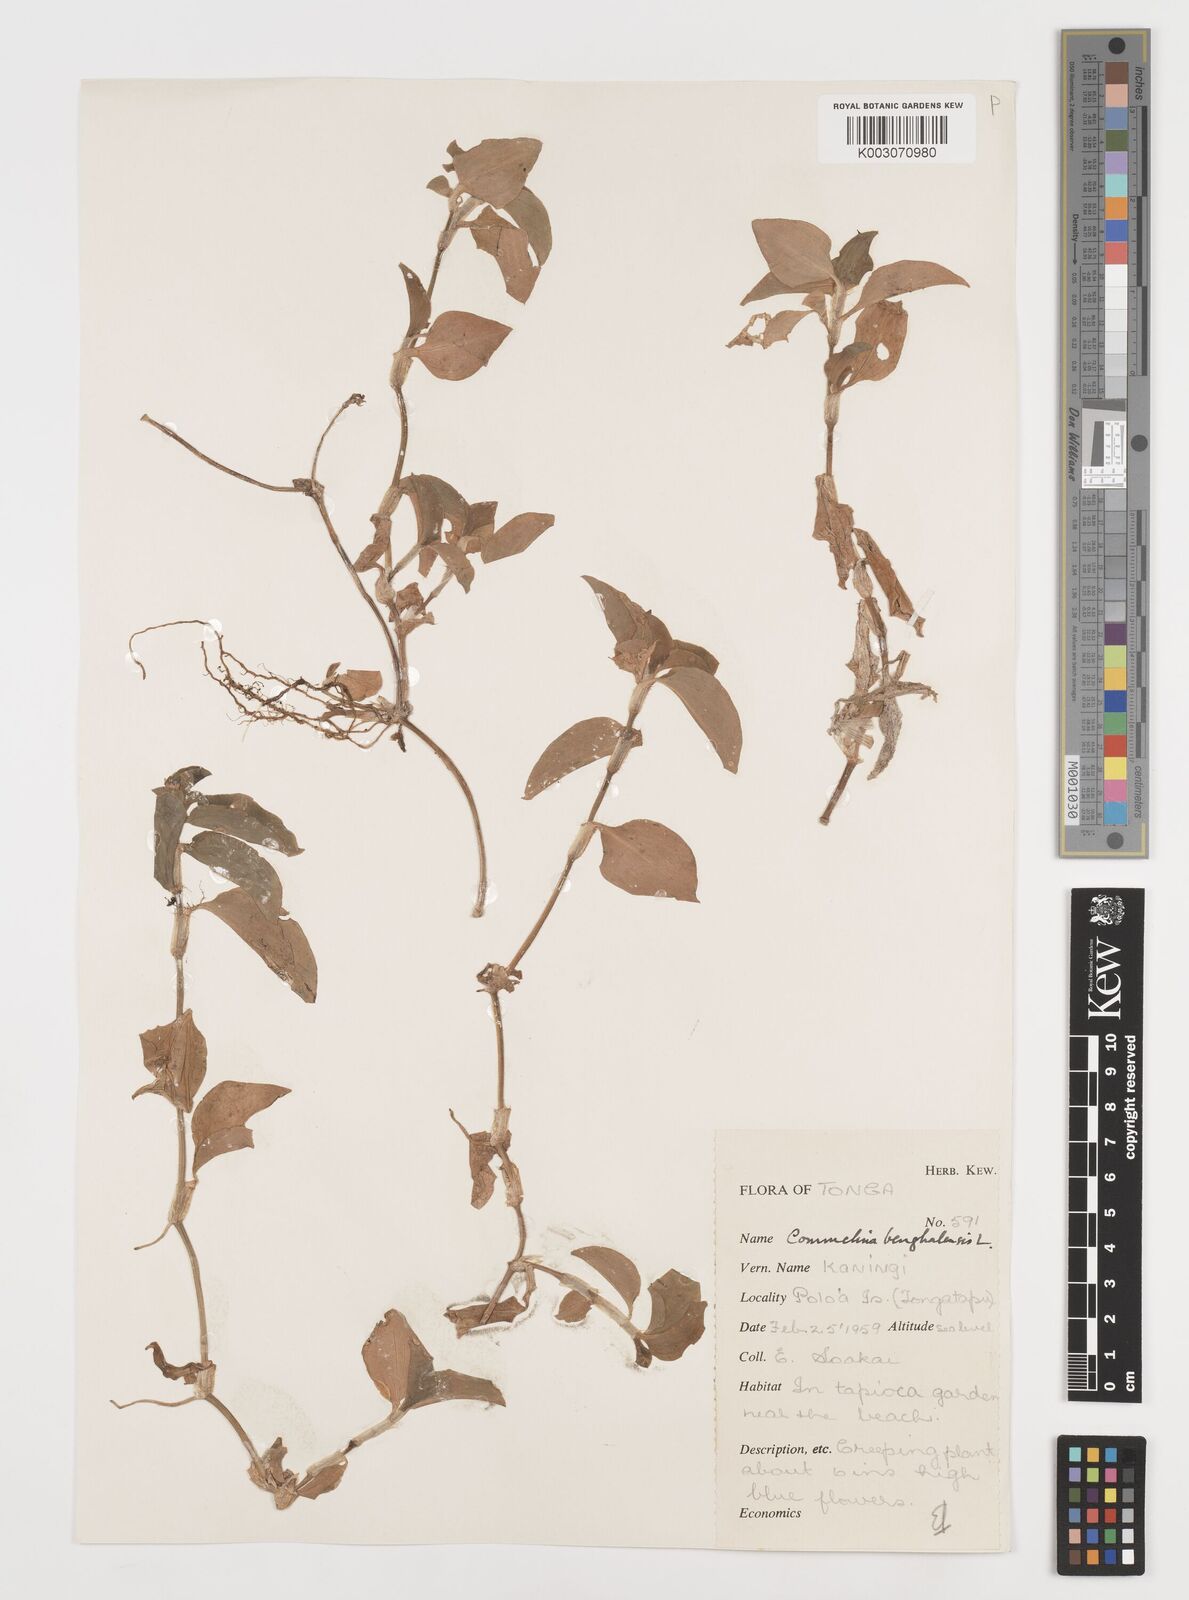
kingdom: Plantae
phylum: Tracheophyta
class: Liliopsida
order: Commelinales
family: Commelinaceae
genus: Commelina
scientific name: Commelina benghalensis
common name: Jio
